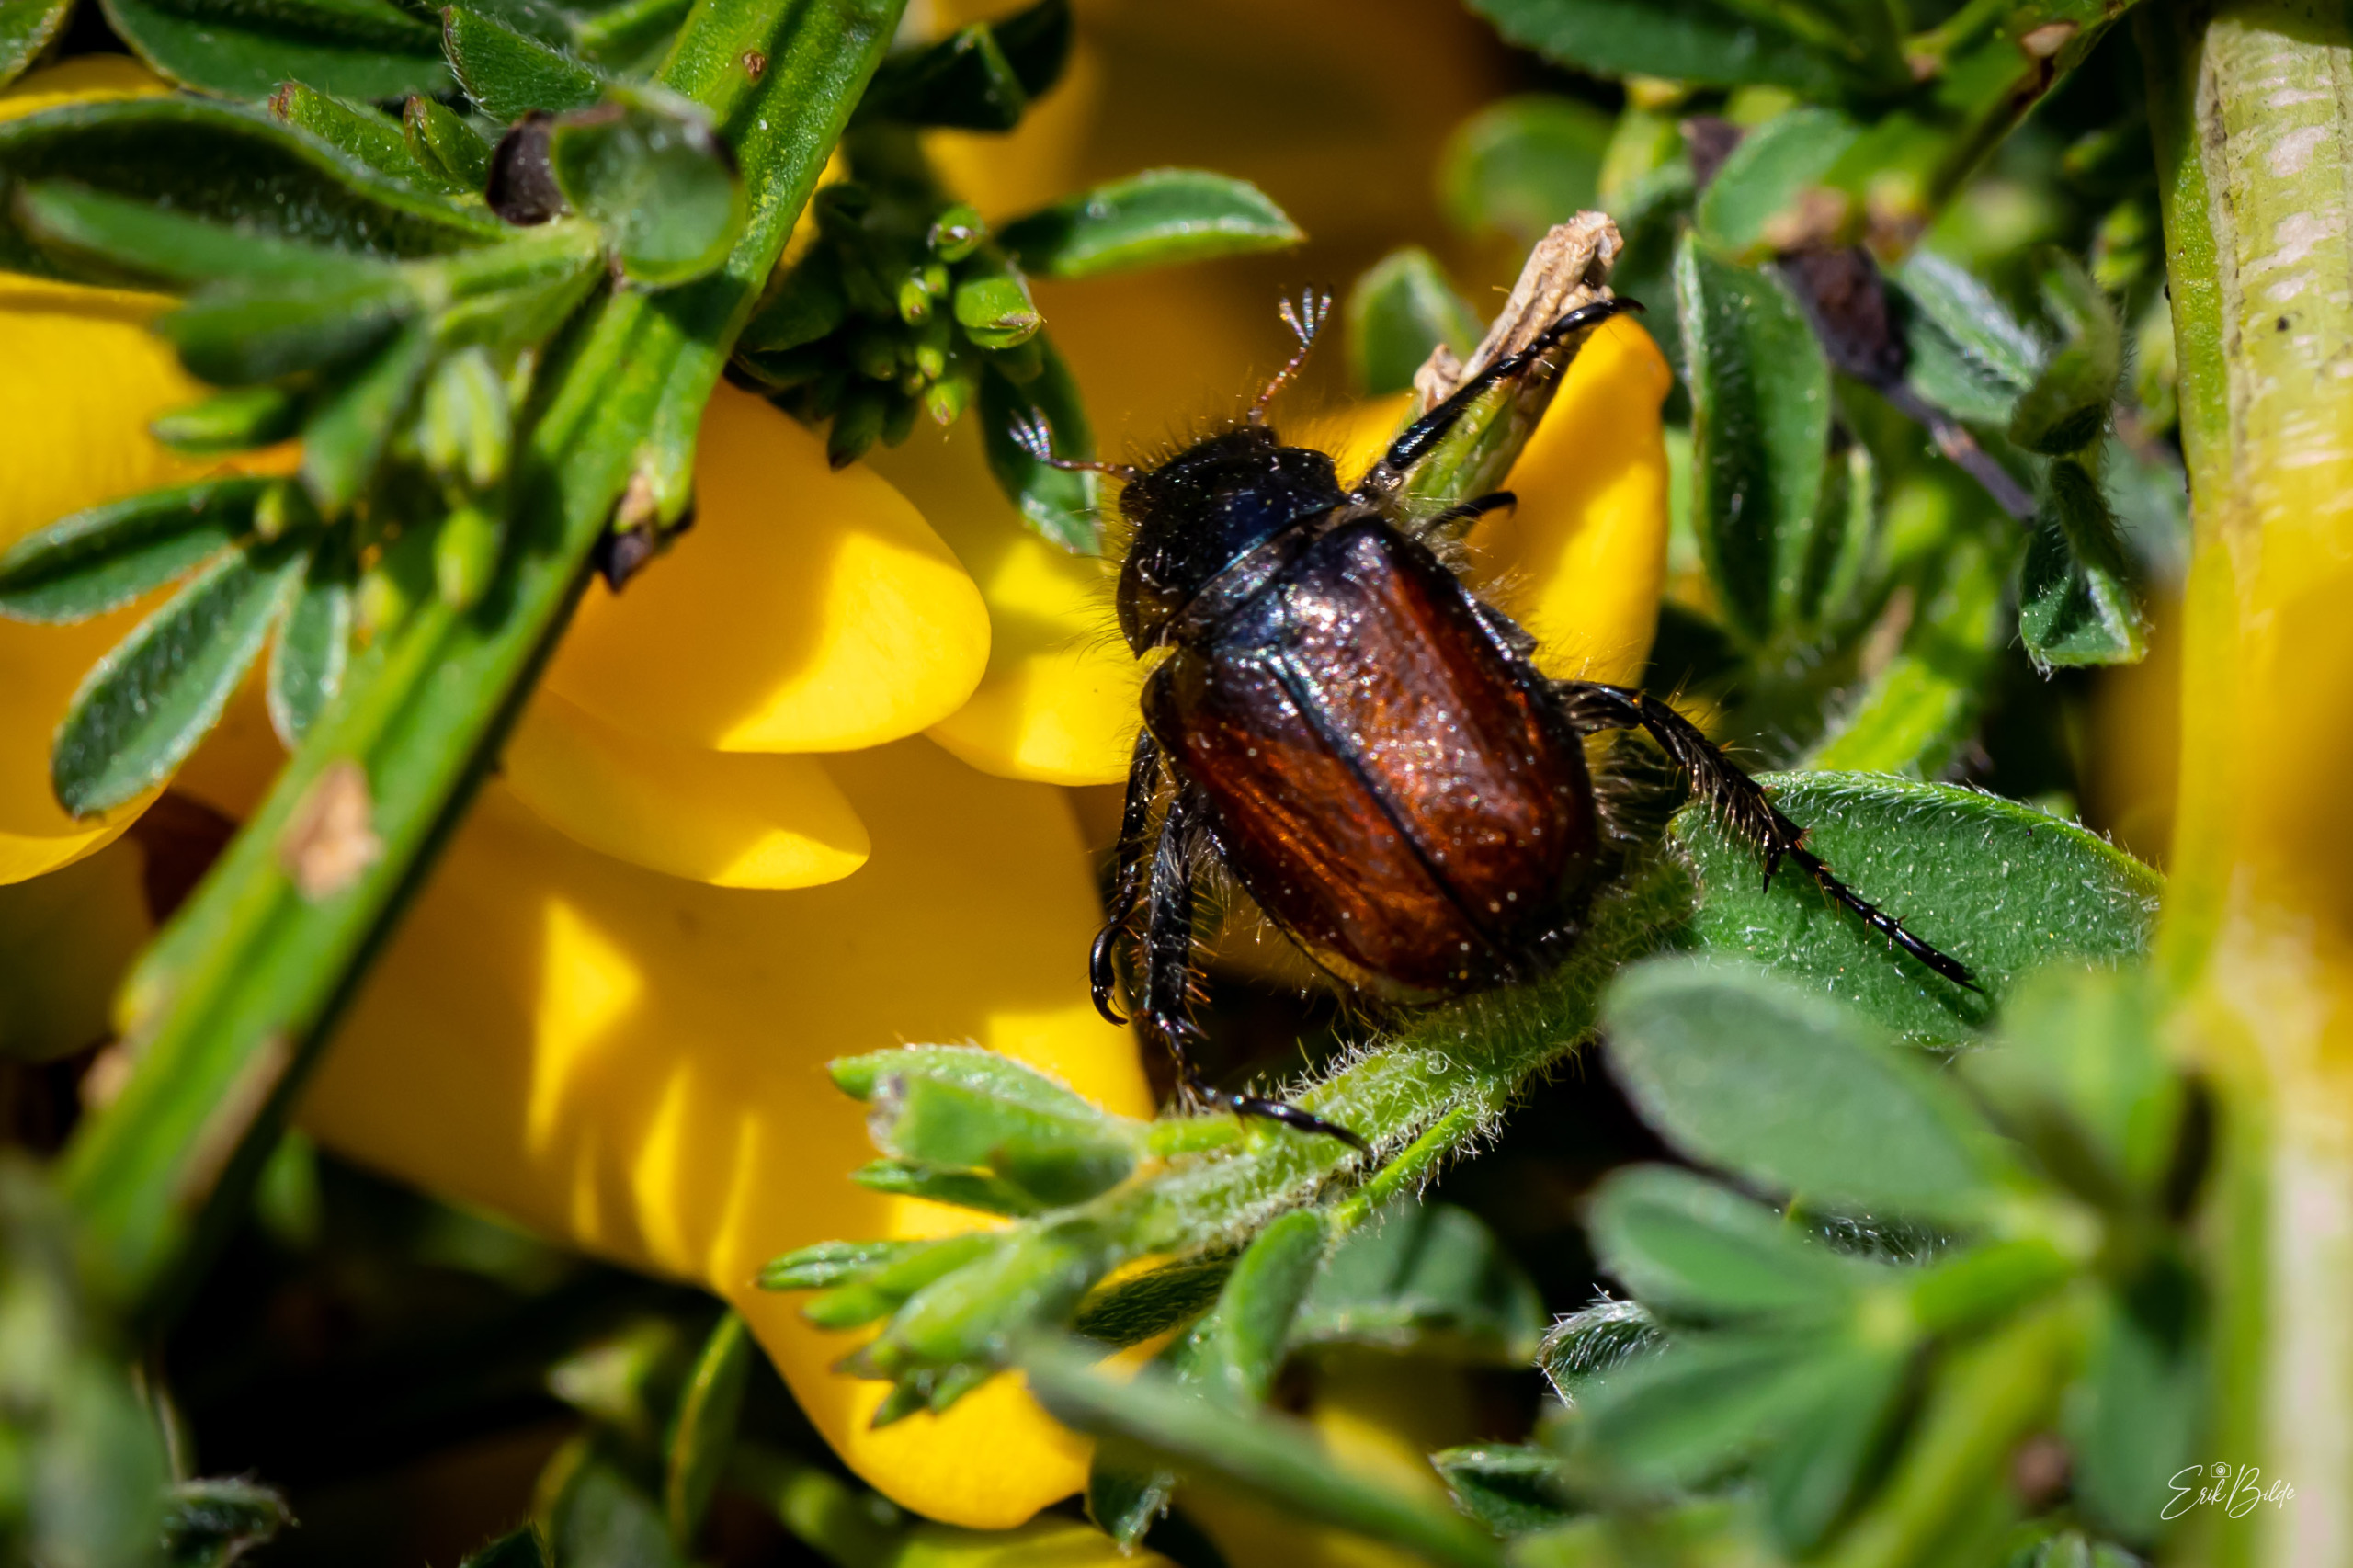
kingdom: Animalia
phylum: Arthropoda
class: Insecta
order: Coleoptera
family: Scarabaeidae
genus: Phyllopertha
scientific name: Phyllopertha horticola
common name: Gåsebille
